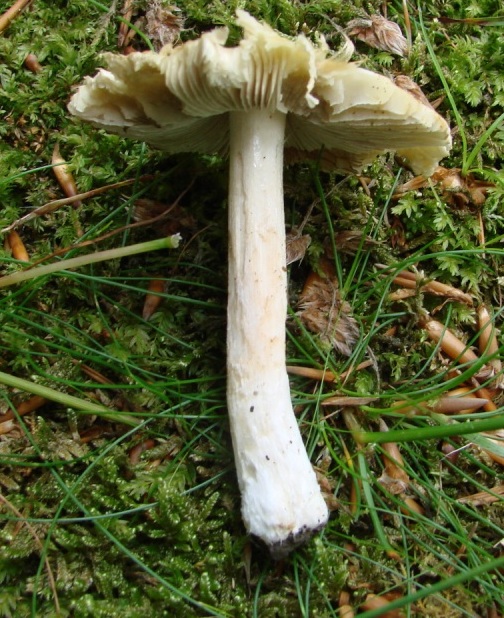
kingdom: Fungi
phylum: Basidiomycota
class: Agaricomycetes
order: Agaricales
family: Inocybaceae
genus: Pseudosperma
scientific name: Pseudosperma rimosum
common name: gulbladet trævlhat
